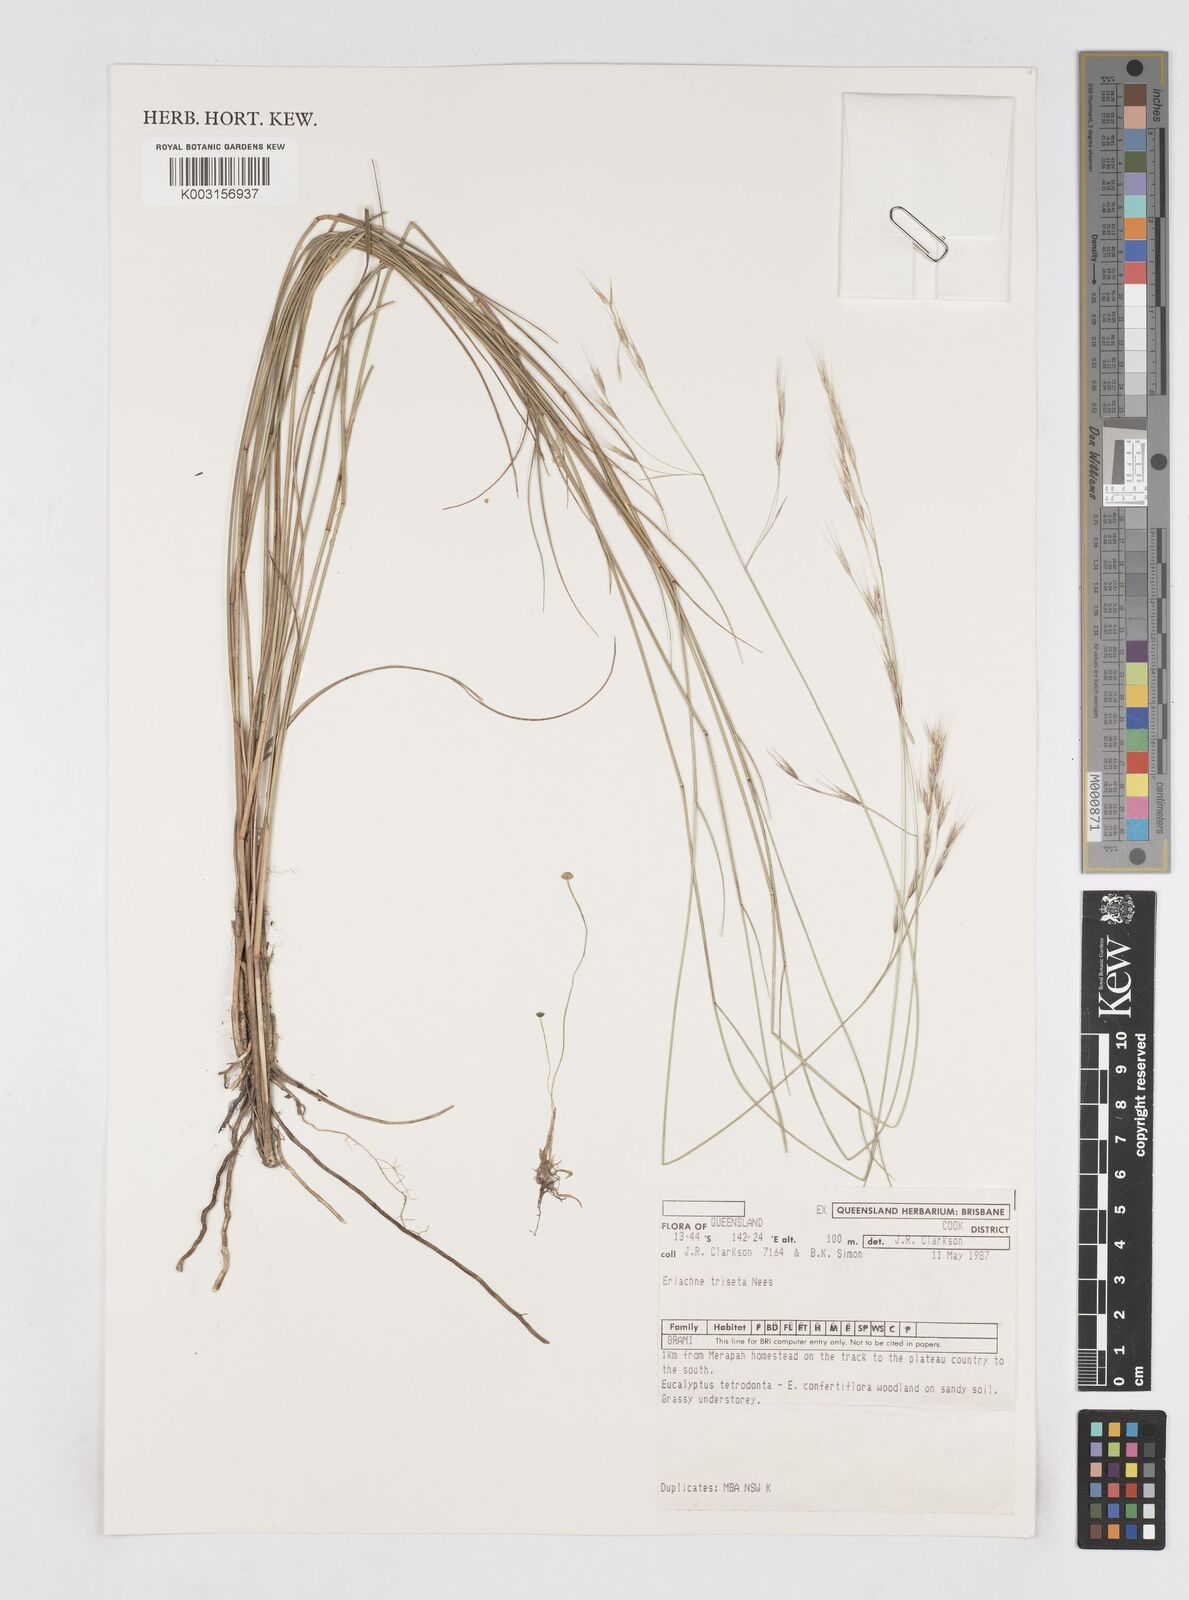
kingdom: Plantae
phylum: Tracheophyta
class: Liliopsida
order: Poales
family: Poaceae
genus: Eriachne
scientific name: Eriachne triseta
